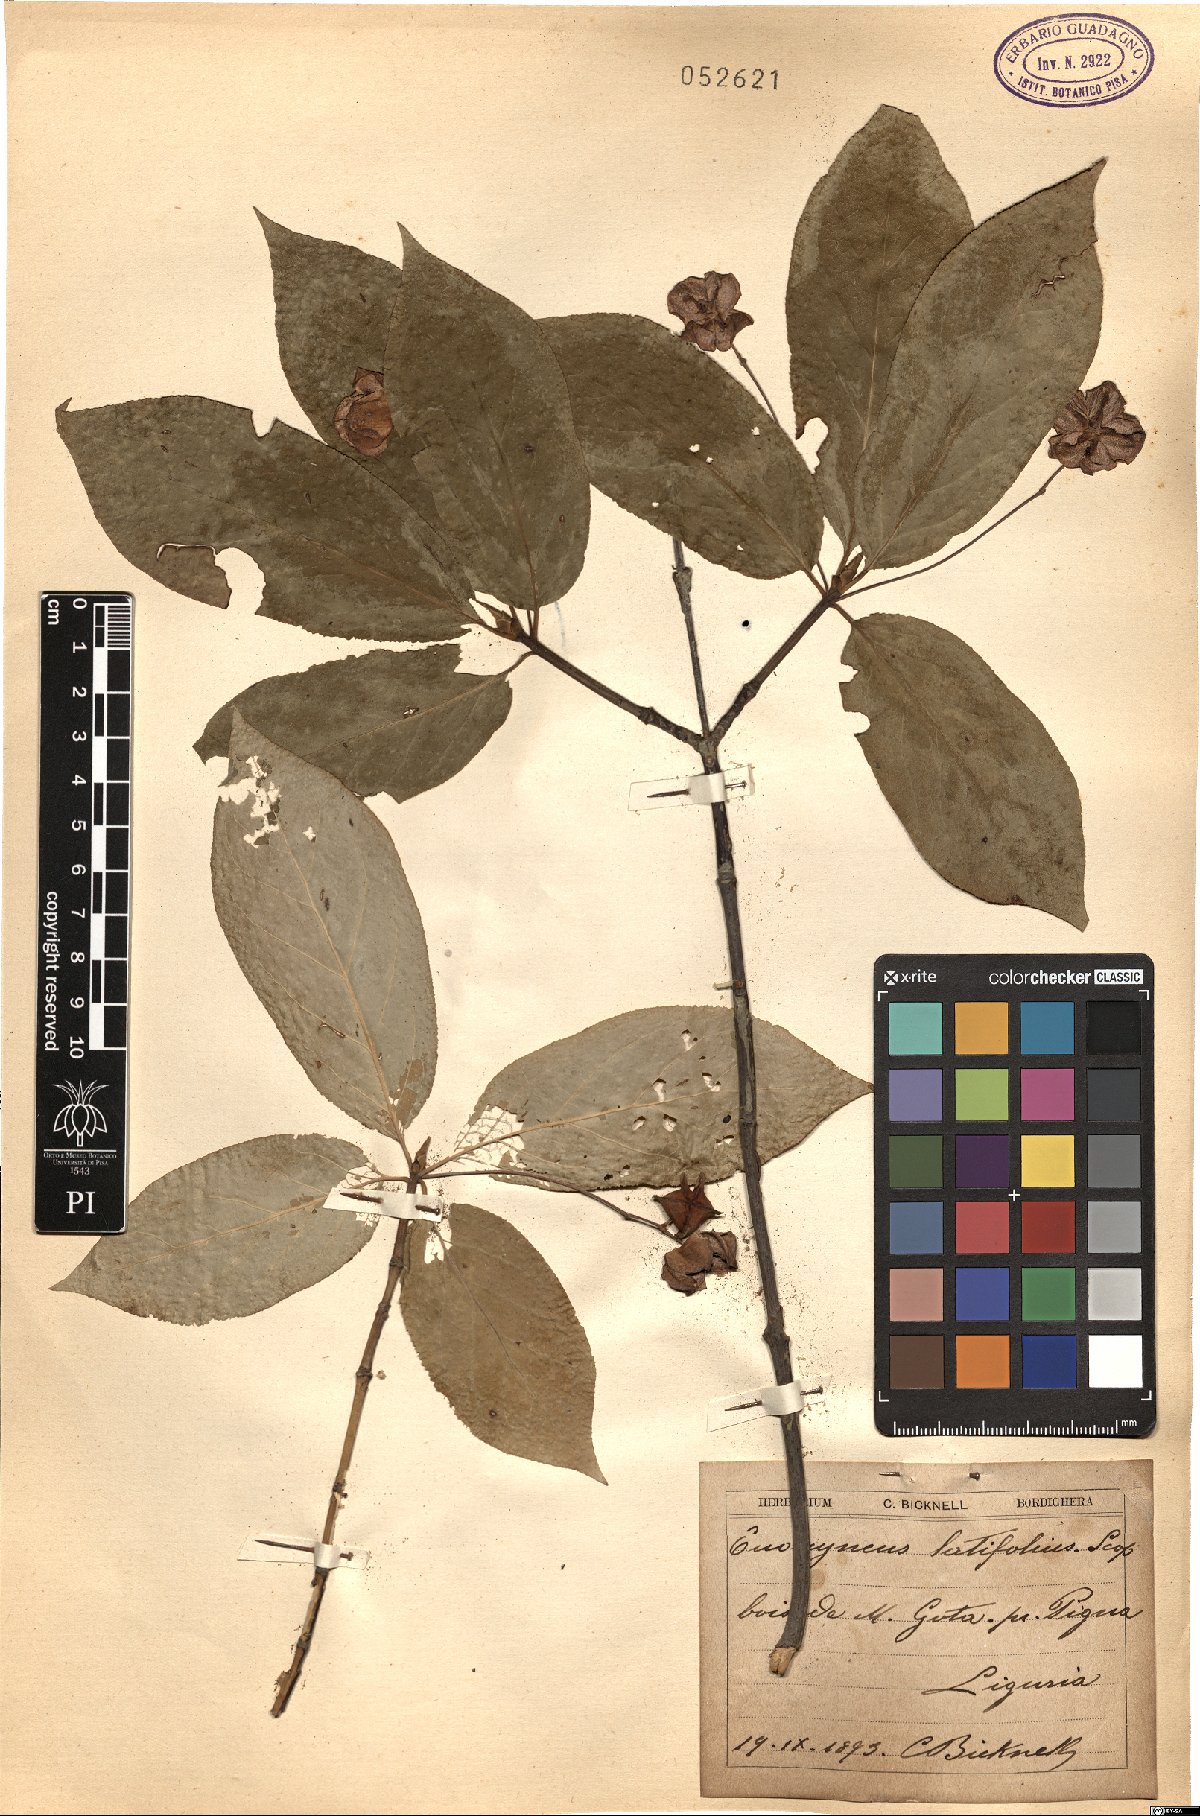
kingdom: Plantae
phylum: Tracheophyta
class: Magnoliopsida
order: Celastrales
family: Celastraceae
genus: Euonymus
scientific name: Euonymus latifolius
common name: Large-leaved spindle
